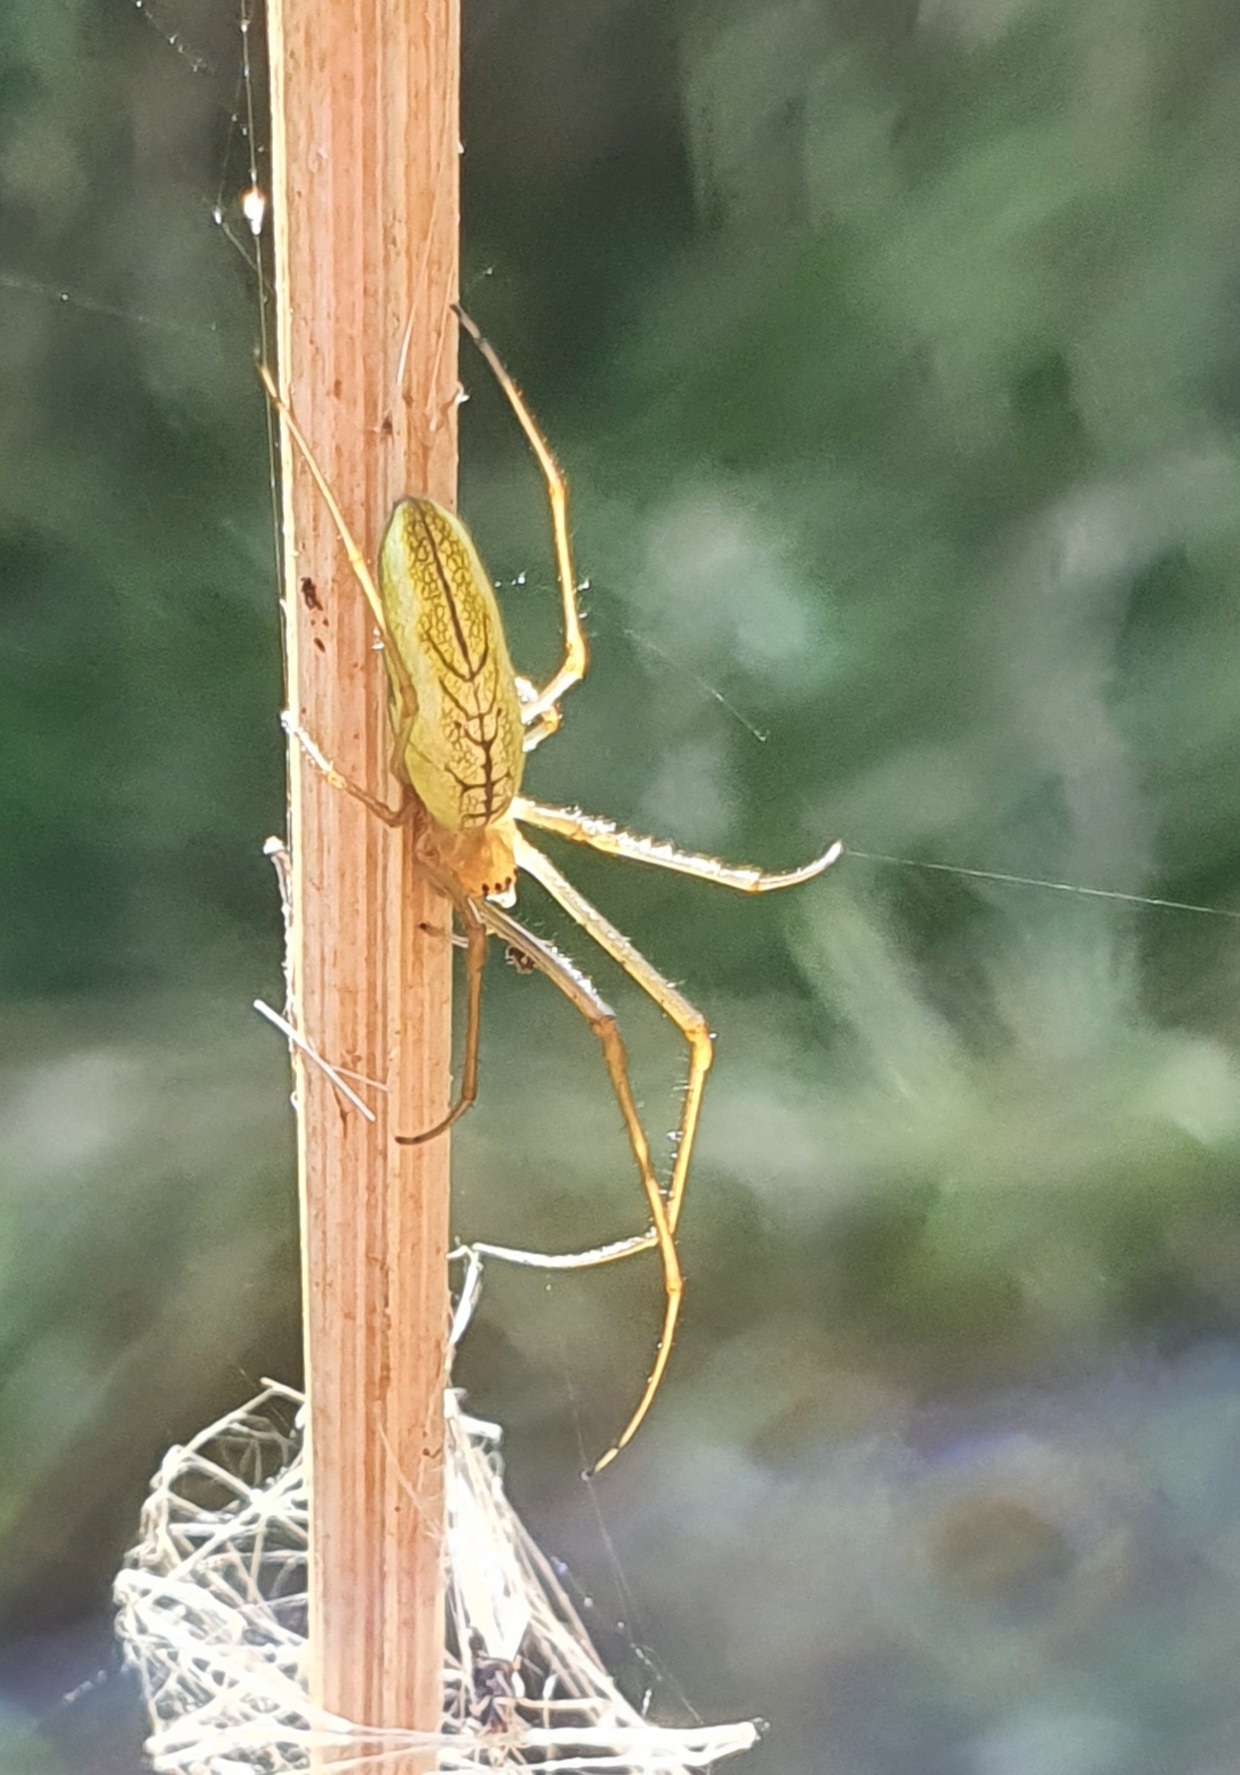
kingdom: Animalia
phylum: Arthropoda
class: Arachnida
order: Araneae
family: Tetragnathidae
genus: Tetragnatha
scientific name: Tetragnatha extensa
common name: Engstavedderkop
